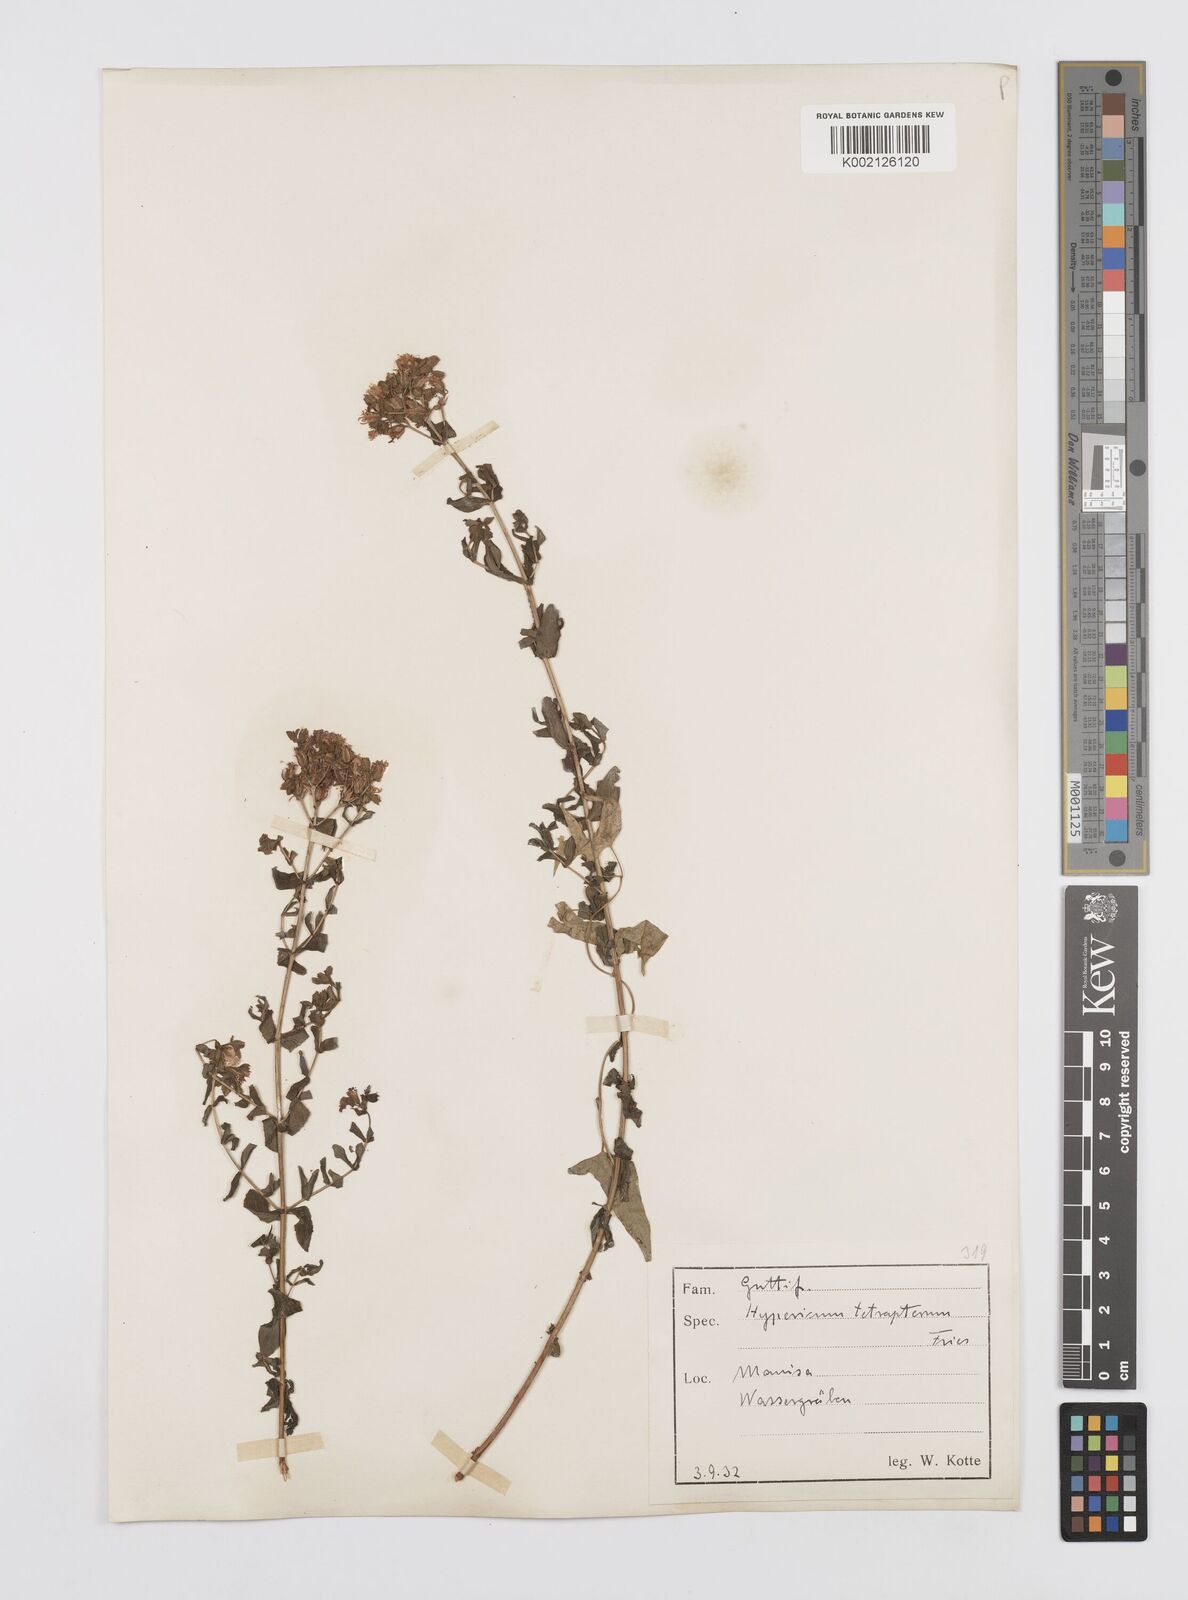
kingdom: Plantae
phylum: Tracheophyta
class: Magnoliopsida
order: Malpighiales
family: Hypericaceae
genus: Hypericum
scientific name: Hypericum tetrapterum
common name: Square-stalked st. john's-wort
